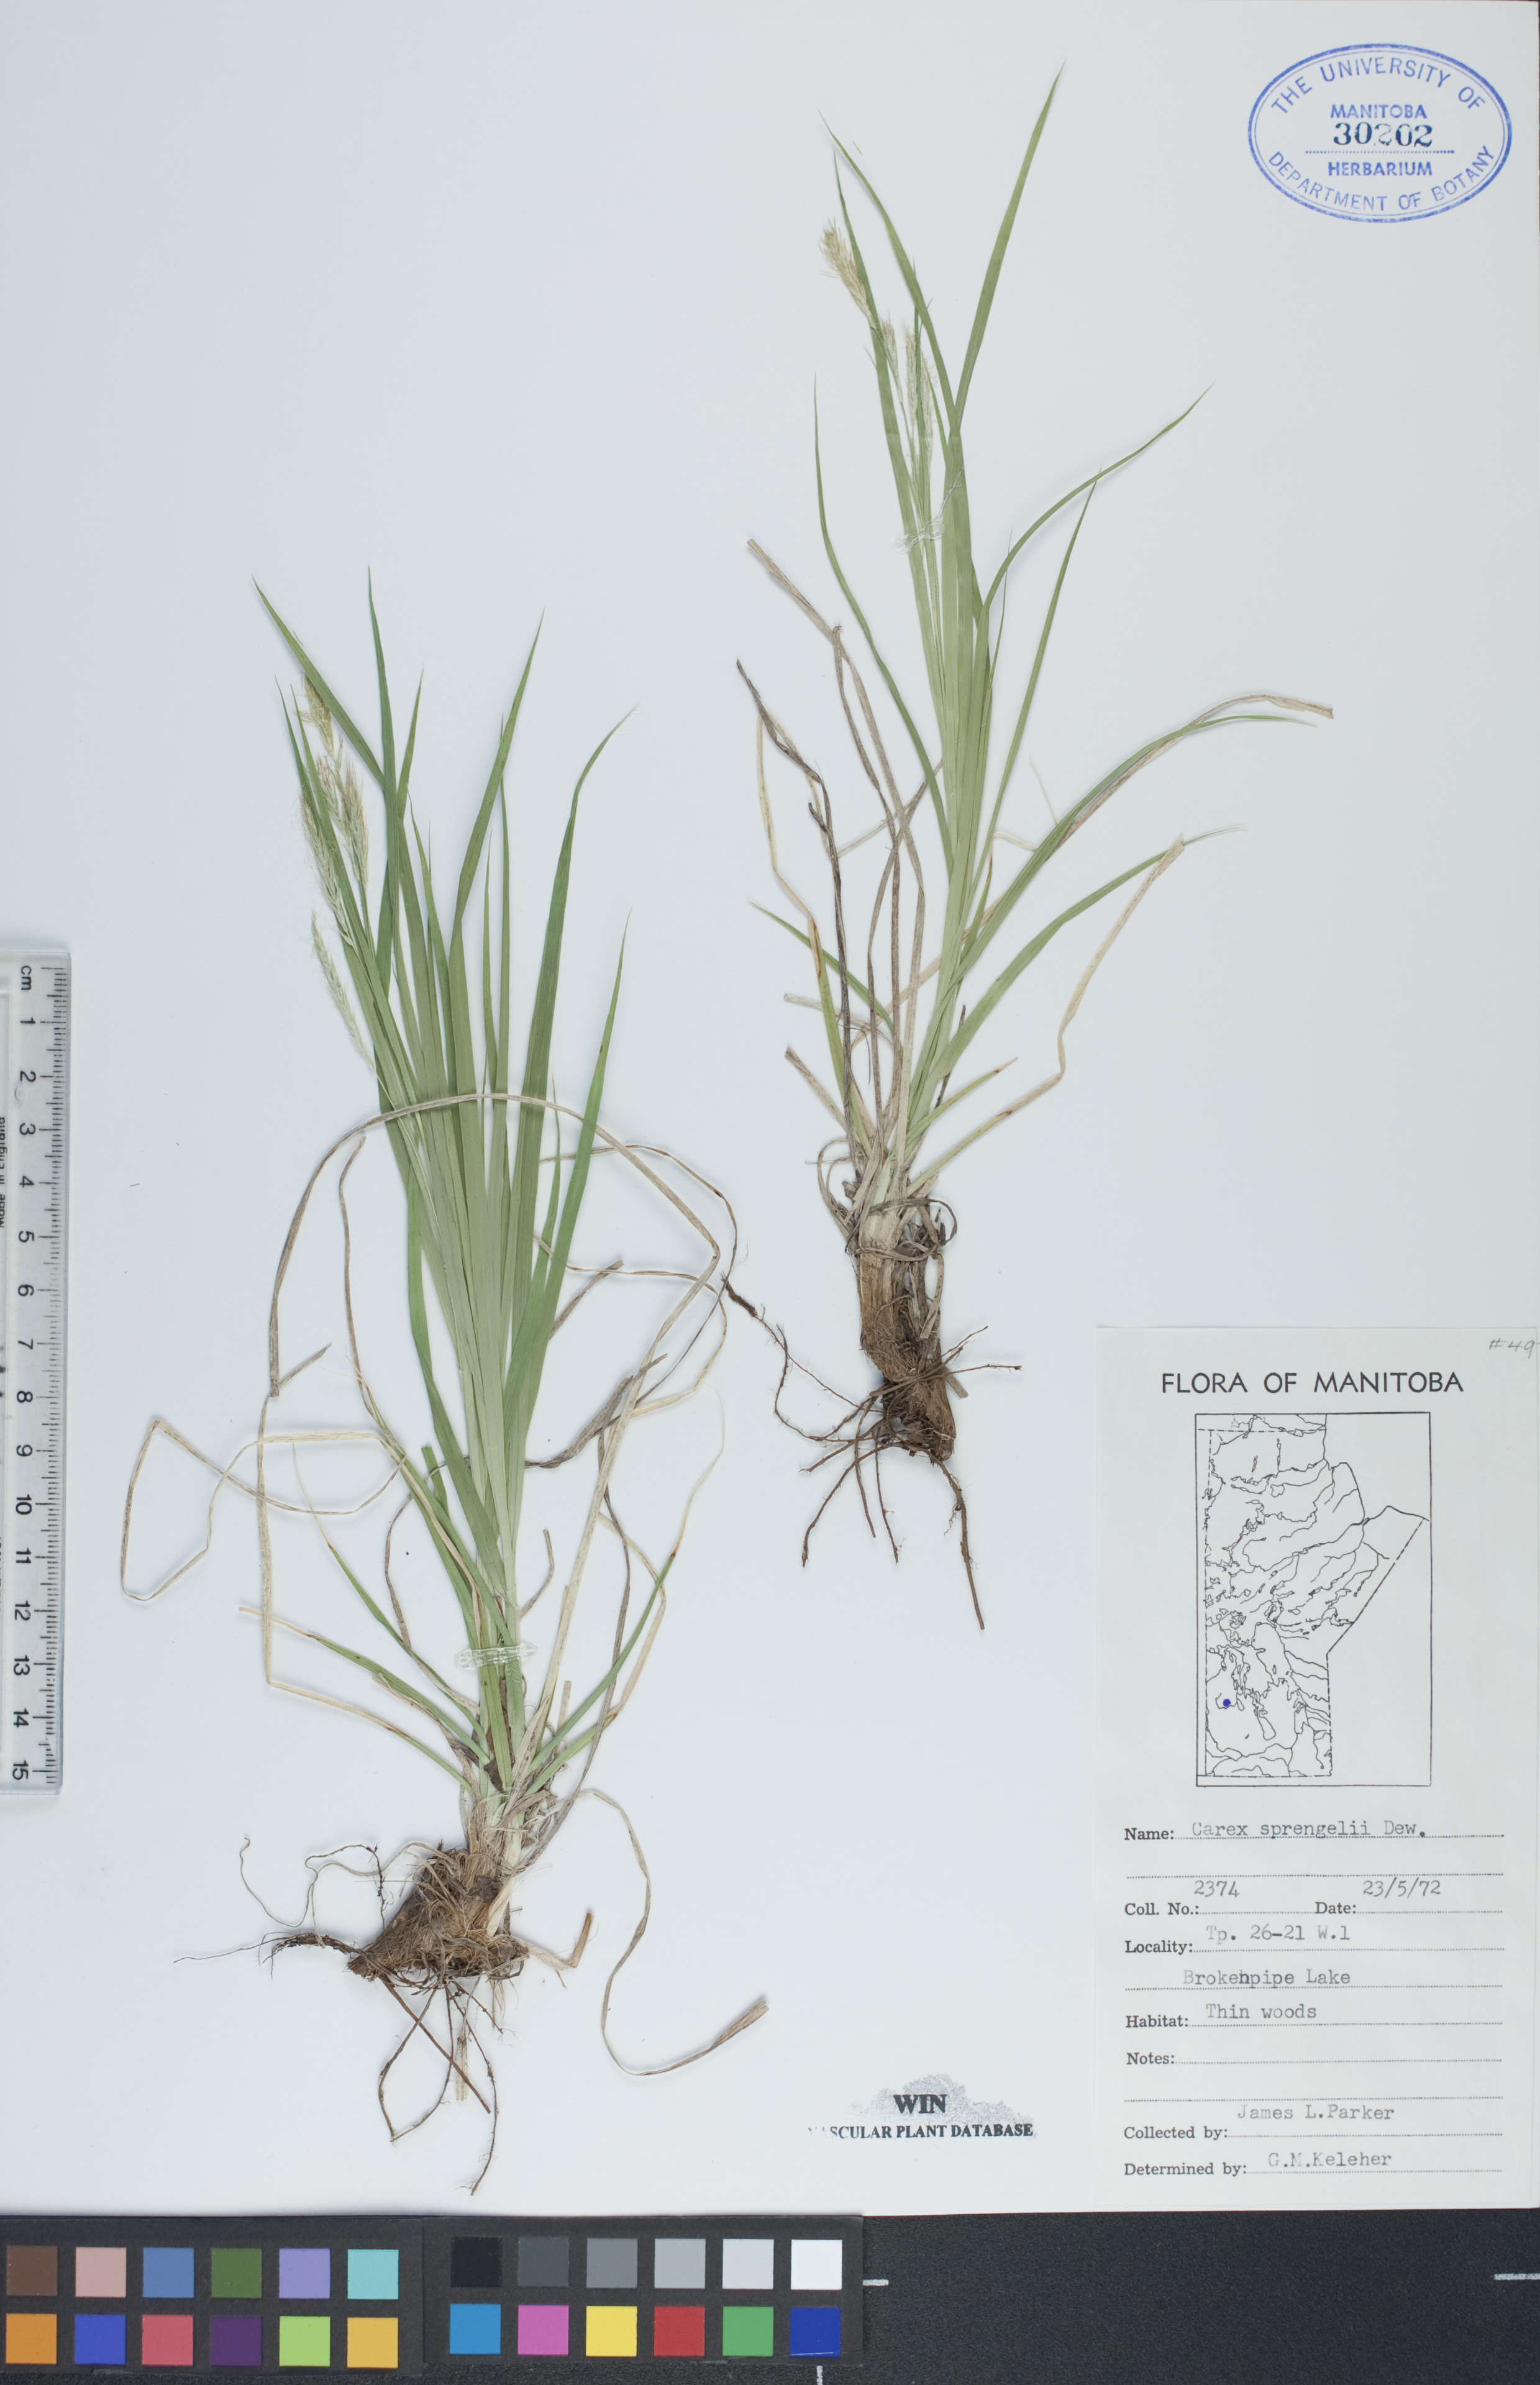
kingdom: Plantae
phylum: Tracheophyta
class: Liliopsida
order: Poales
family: Cyperaceae
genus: Carex
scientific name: Carex sprengelii
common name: Long-beaked sedge
